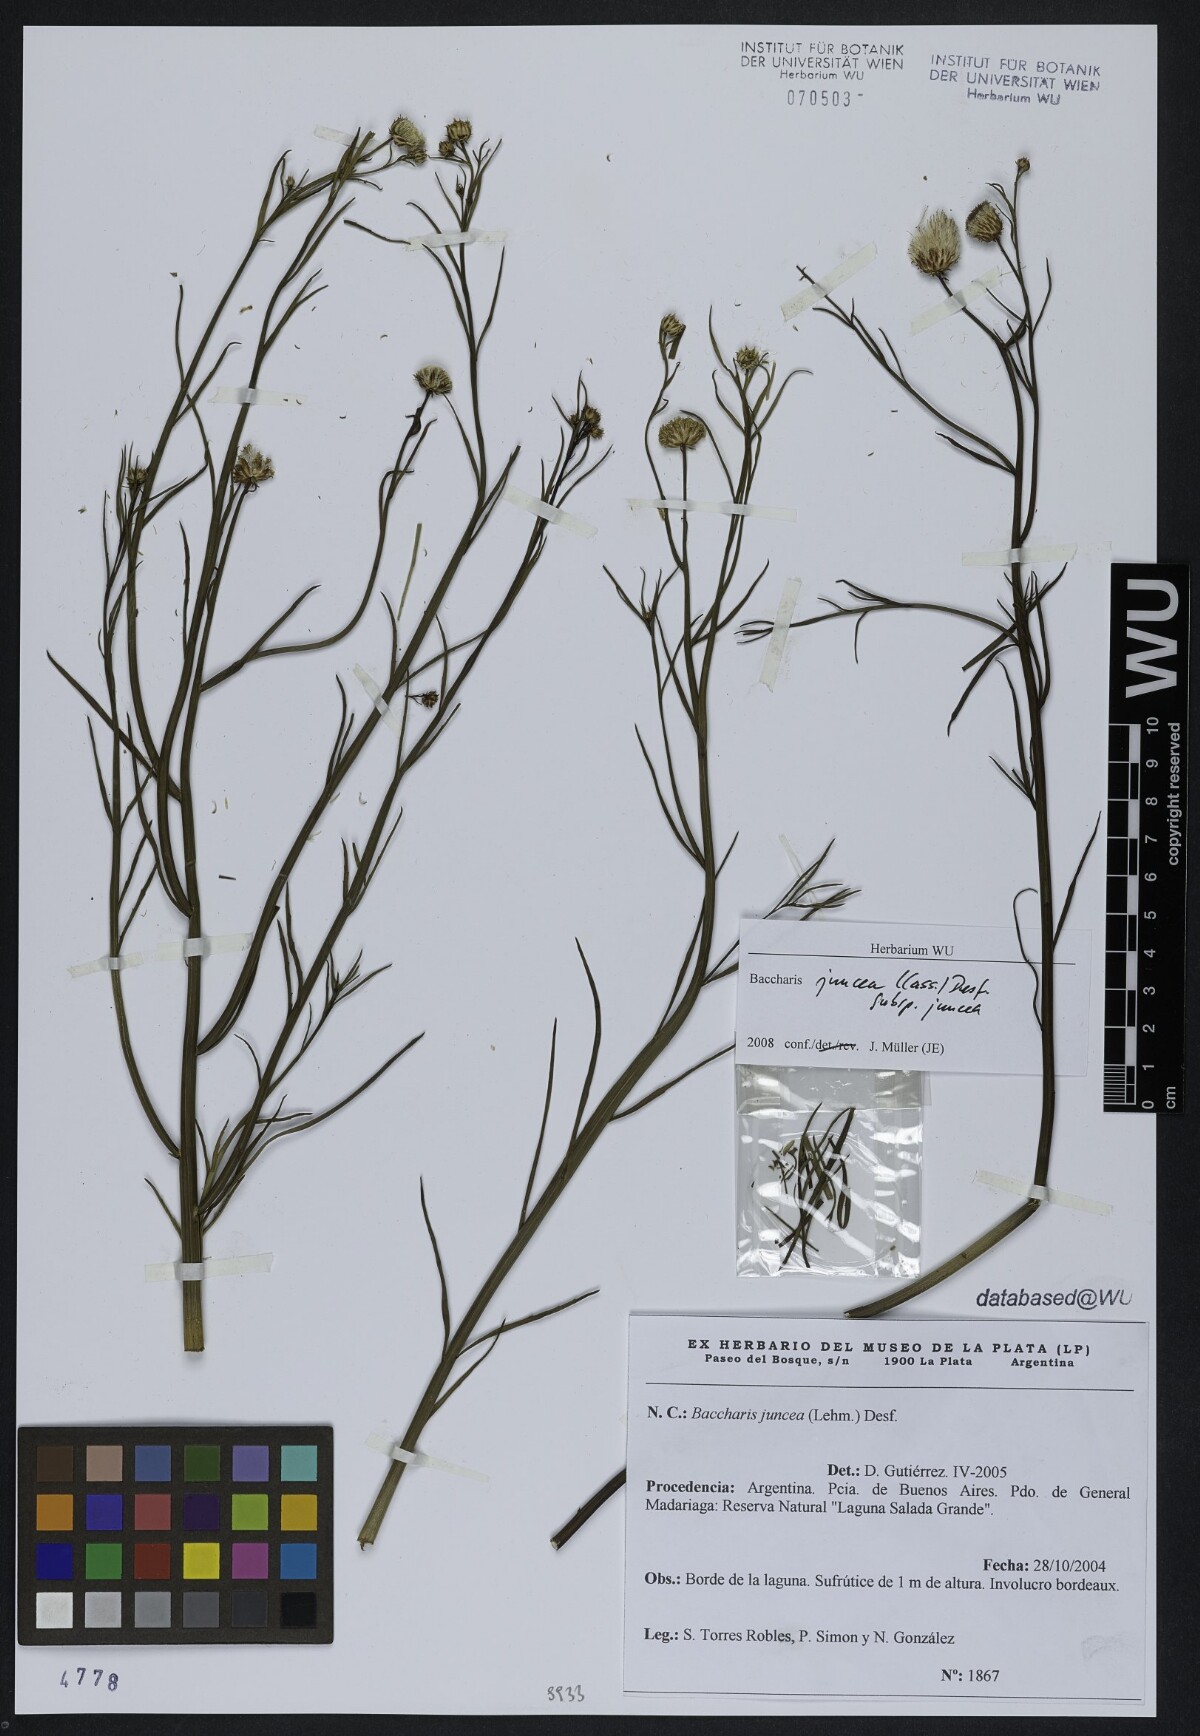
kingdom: Plantae
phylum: Tracheophyta
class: Magnoliopsida
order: Asterales
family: Asteraceae
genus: Baccharis
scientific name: Baccharis juncea
